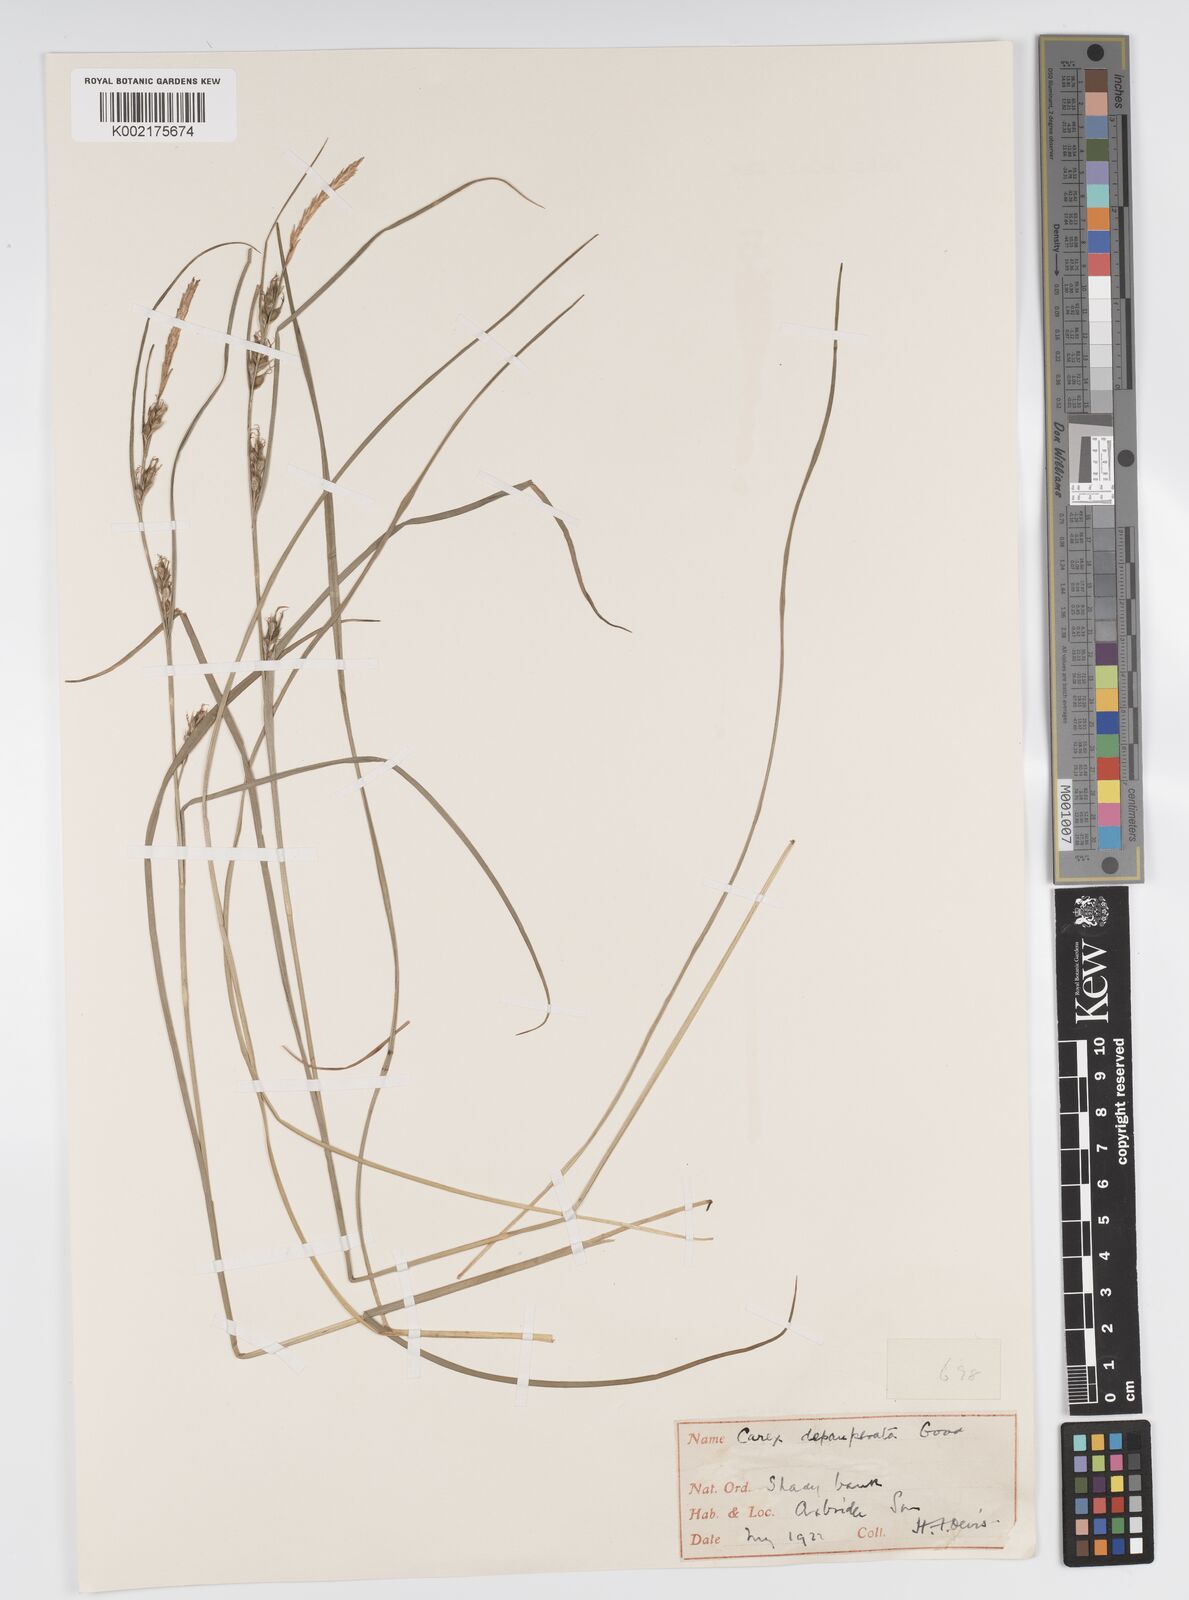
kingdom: Plantae
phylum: Tracheophyta
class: Liliopsida
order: Poales
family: Cyperaceae
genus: Carex
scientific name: Carex depauperata
